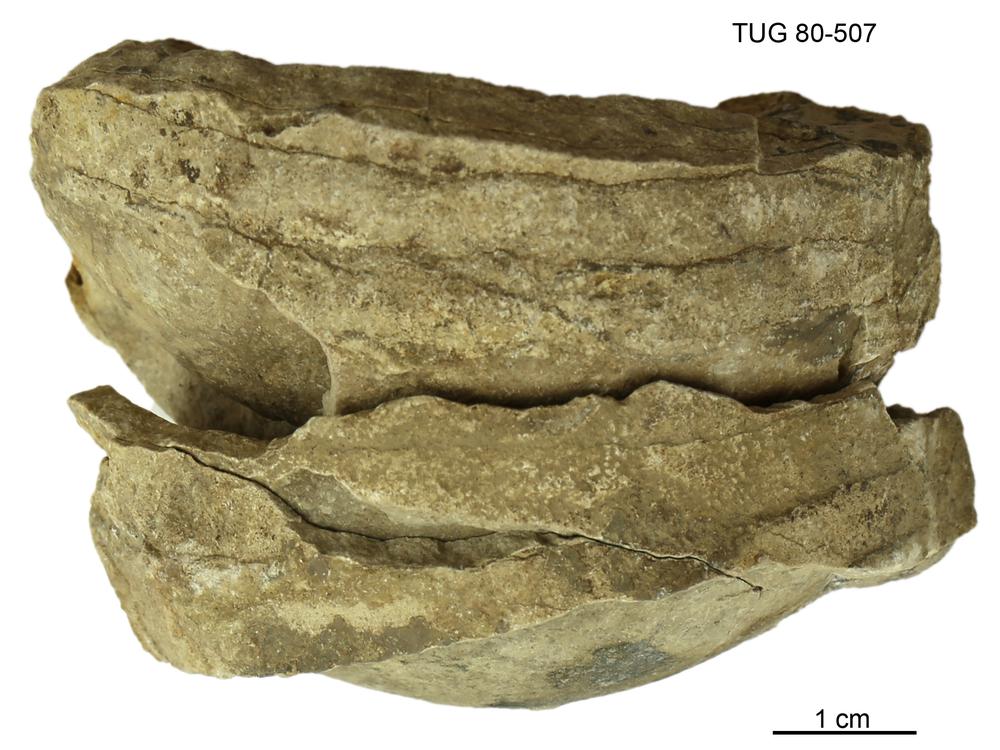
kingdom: Animalia
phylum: Mollusca
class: Cephalopoda
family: Protophragmoceratidae
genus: Protophragmoceras
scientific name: Protophragmoceras
